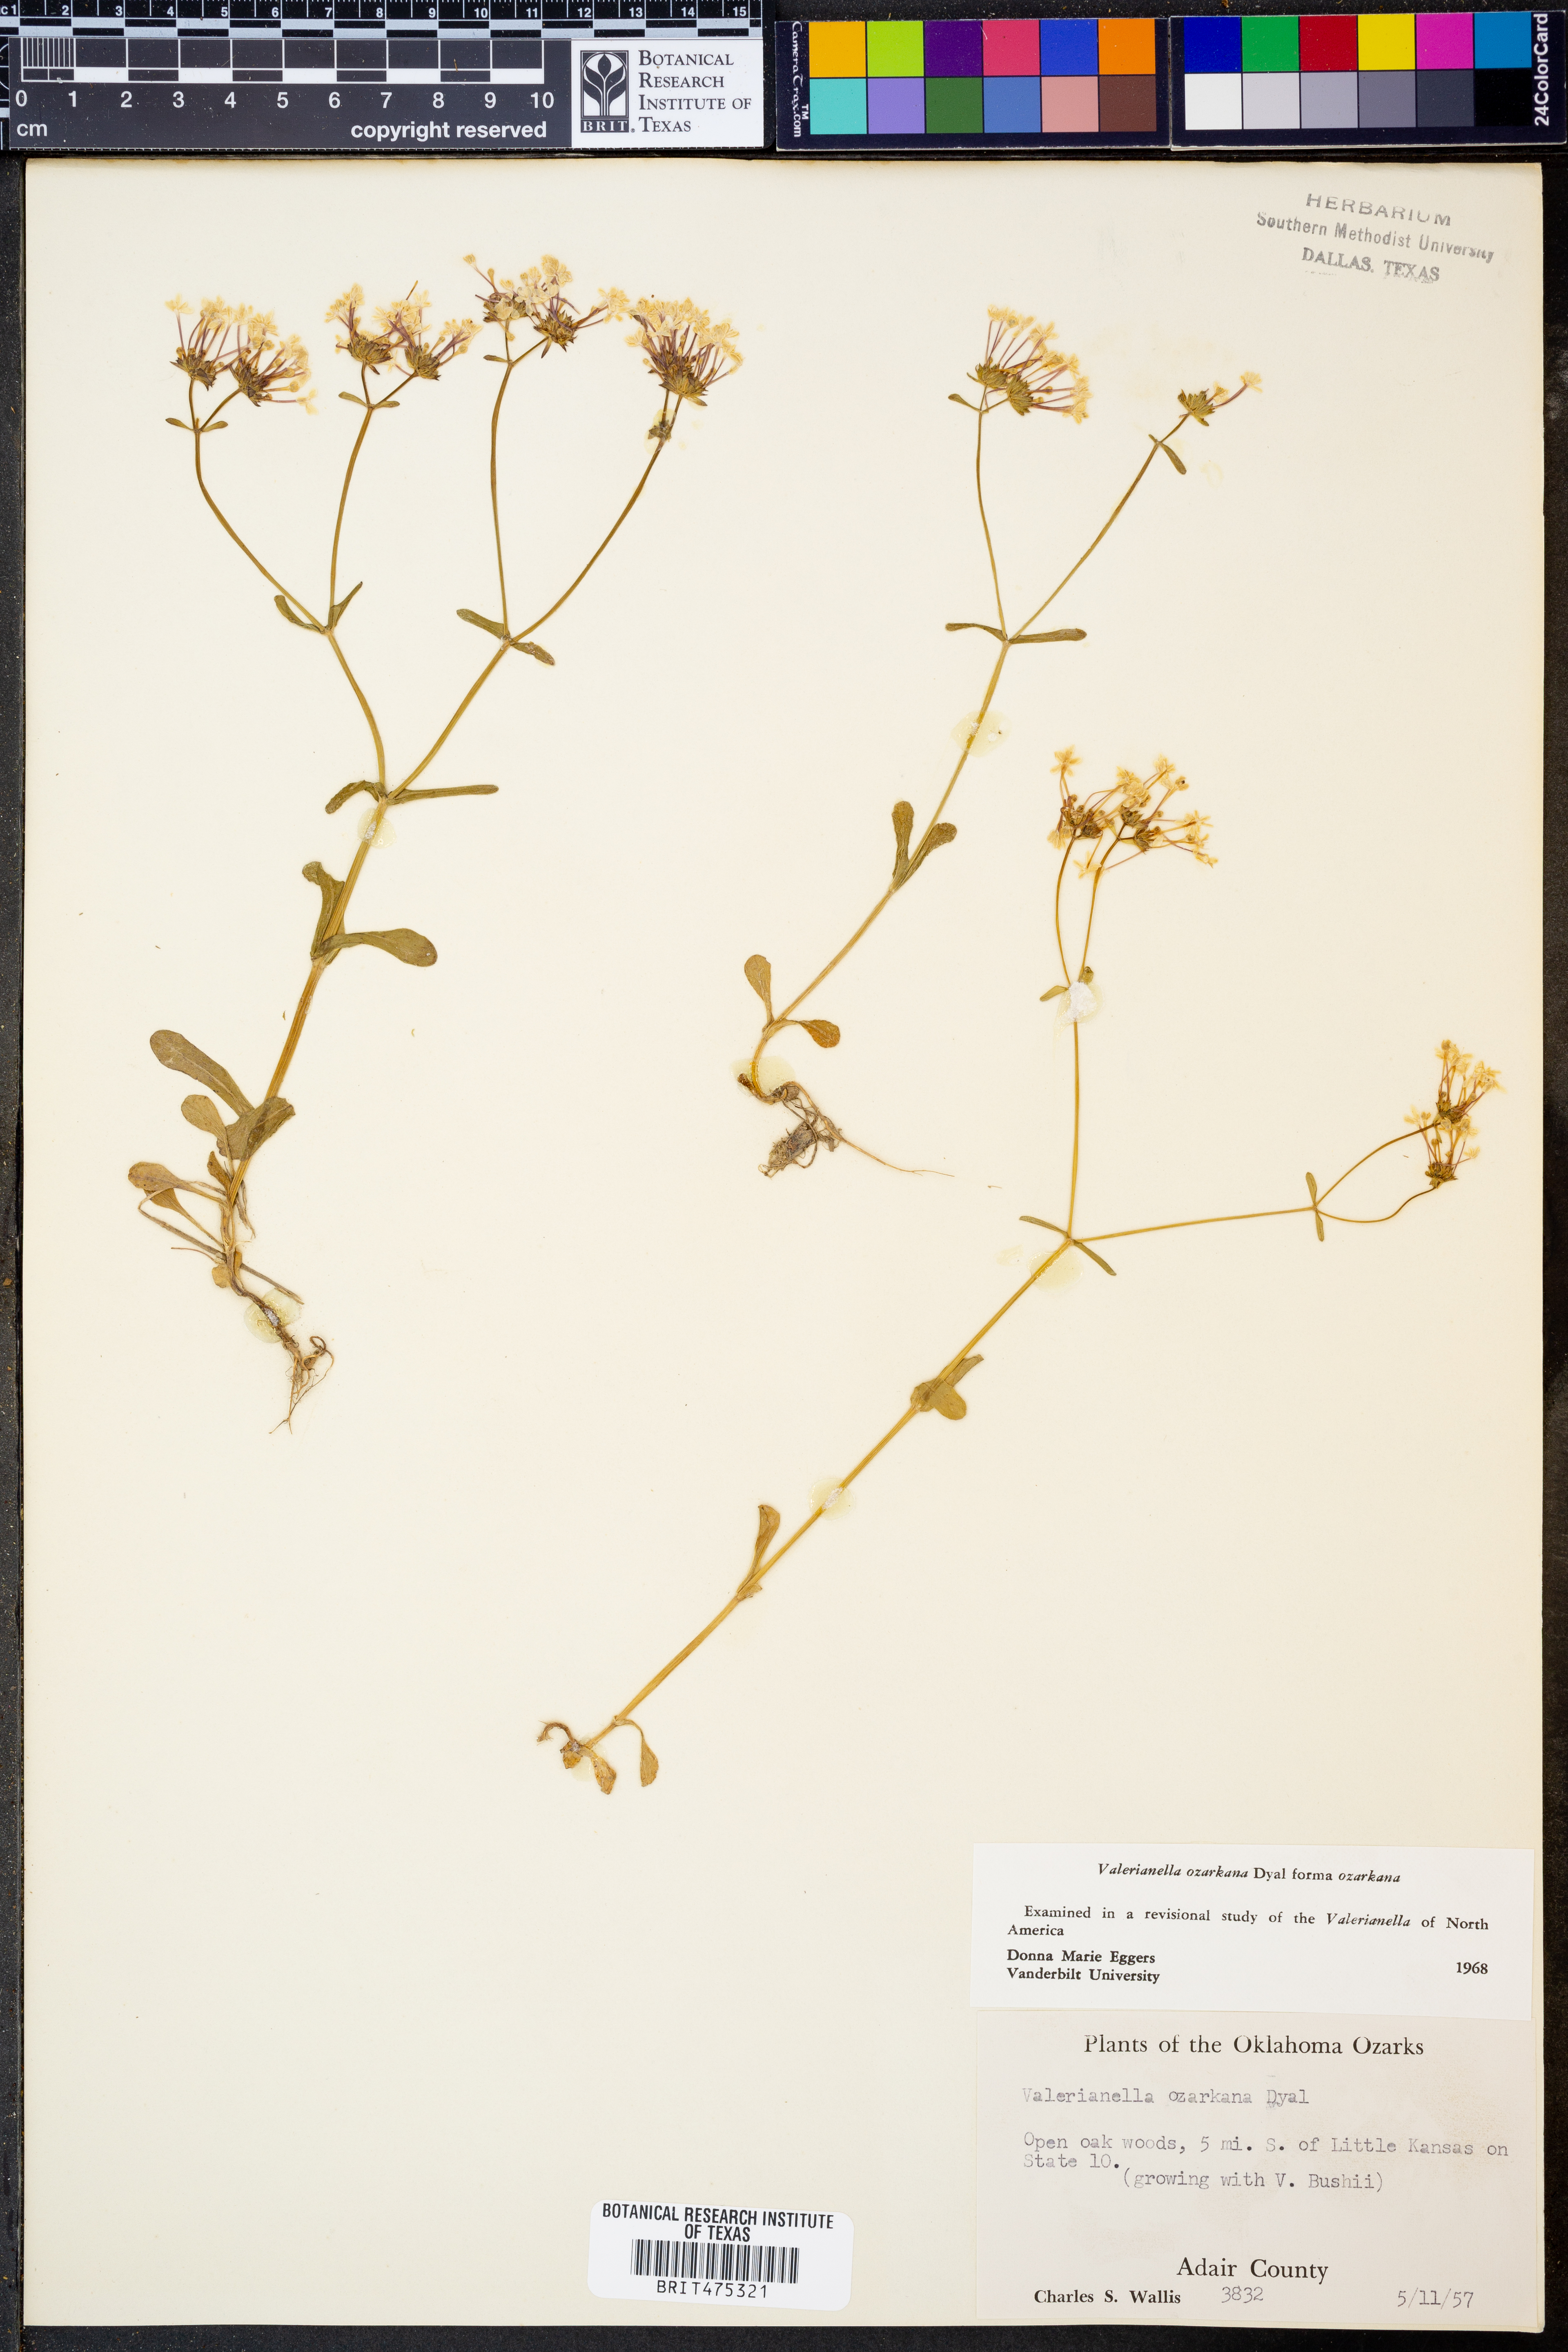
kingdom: Plantae
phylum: Tracheophyta
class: Magnoliopsida
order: Dipsacales
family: Caprifoliaceae
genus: Valerianella
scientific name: Valerianella ozarkana
